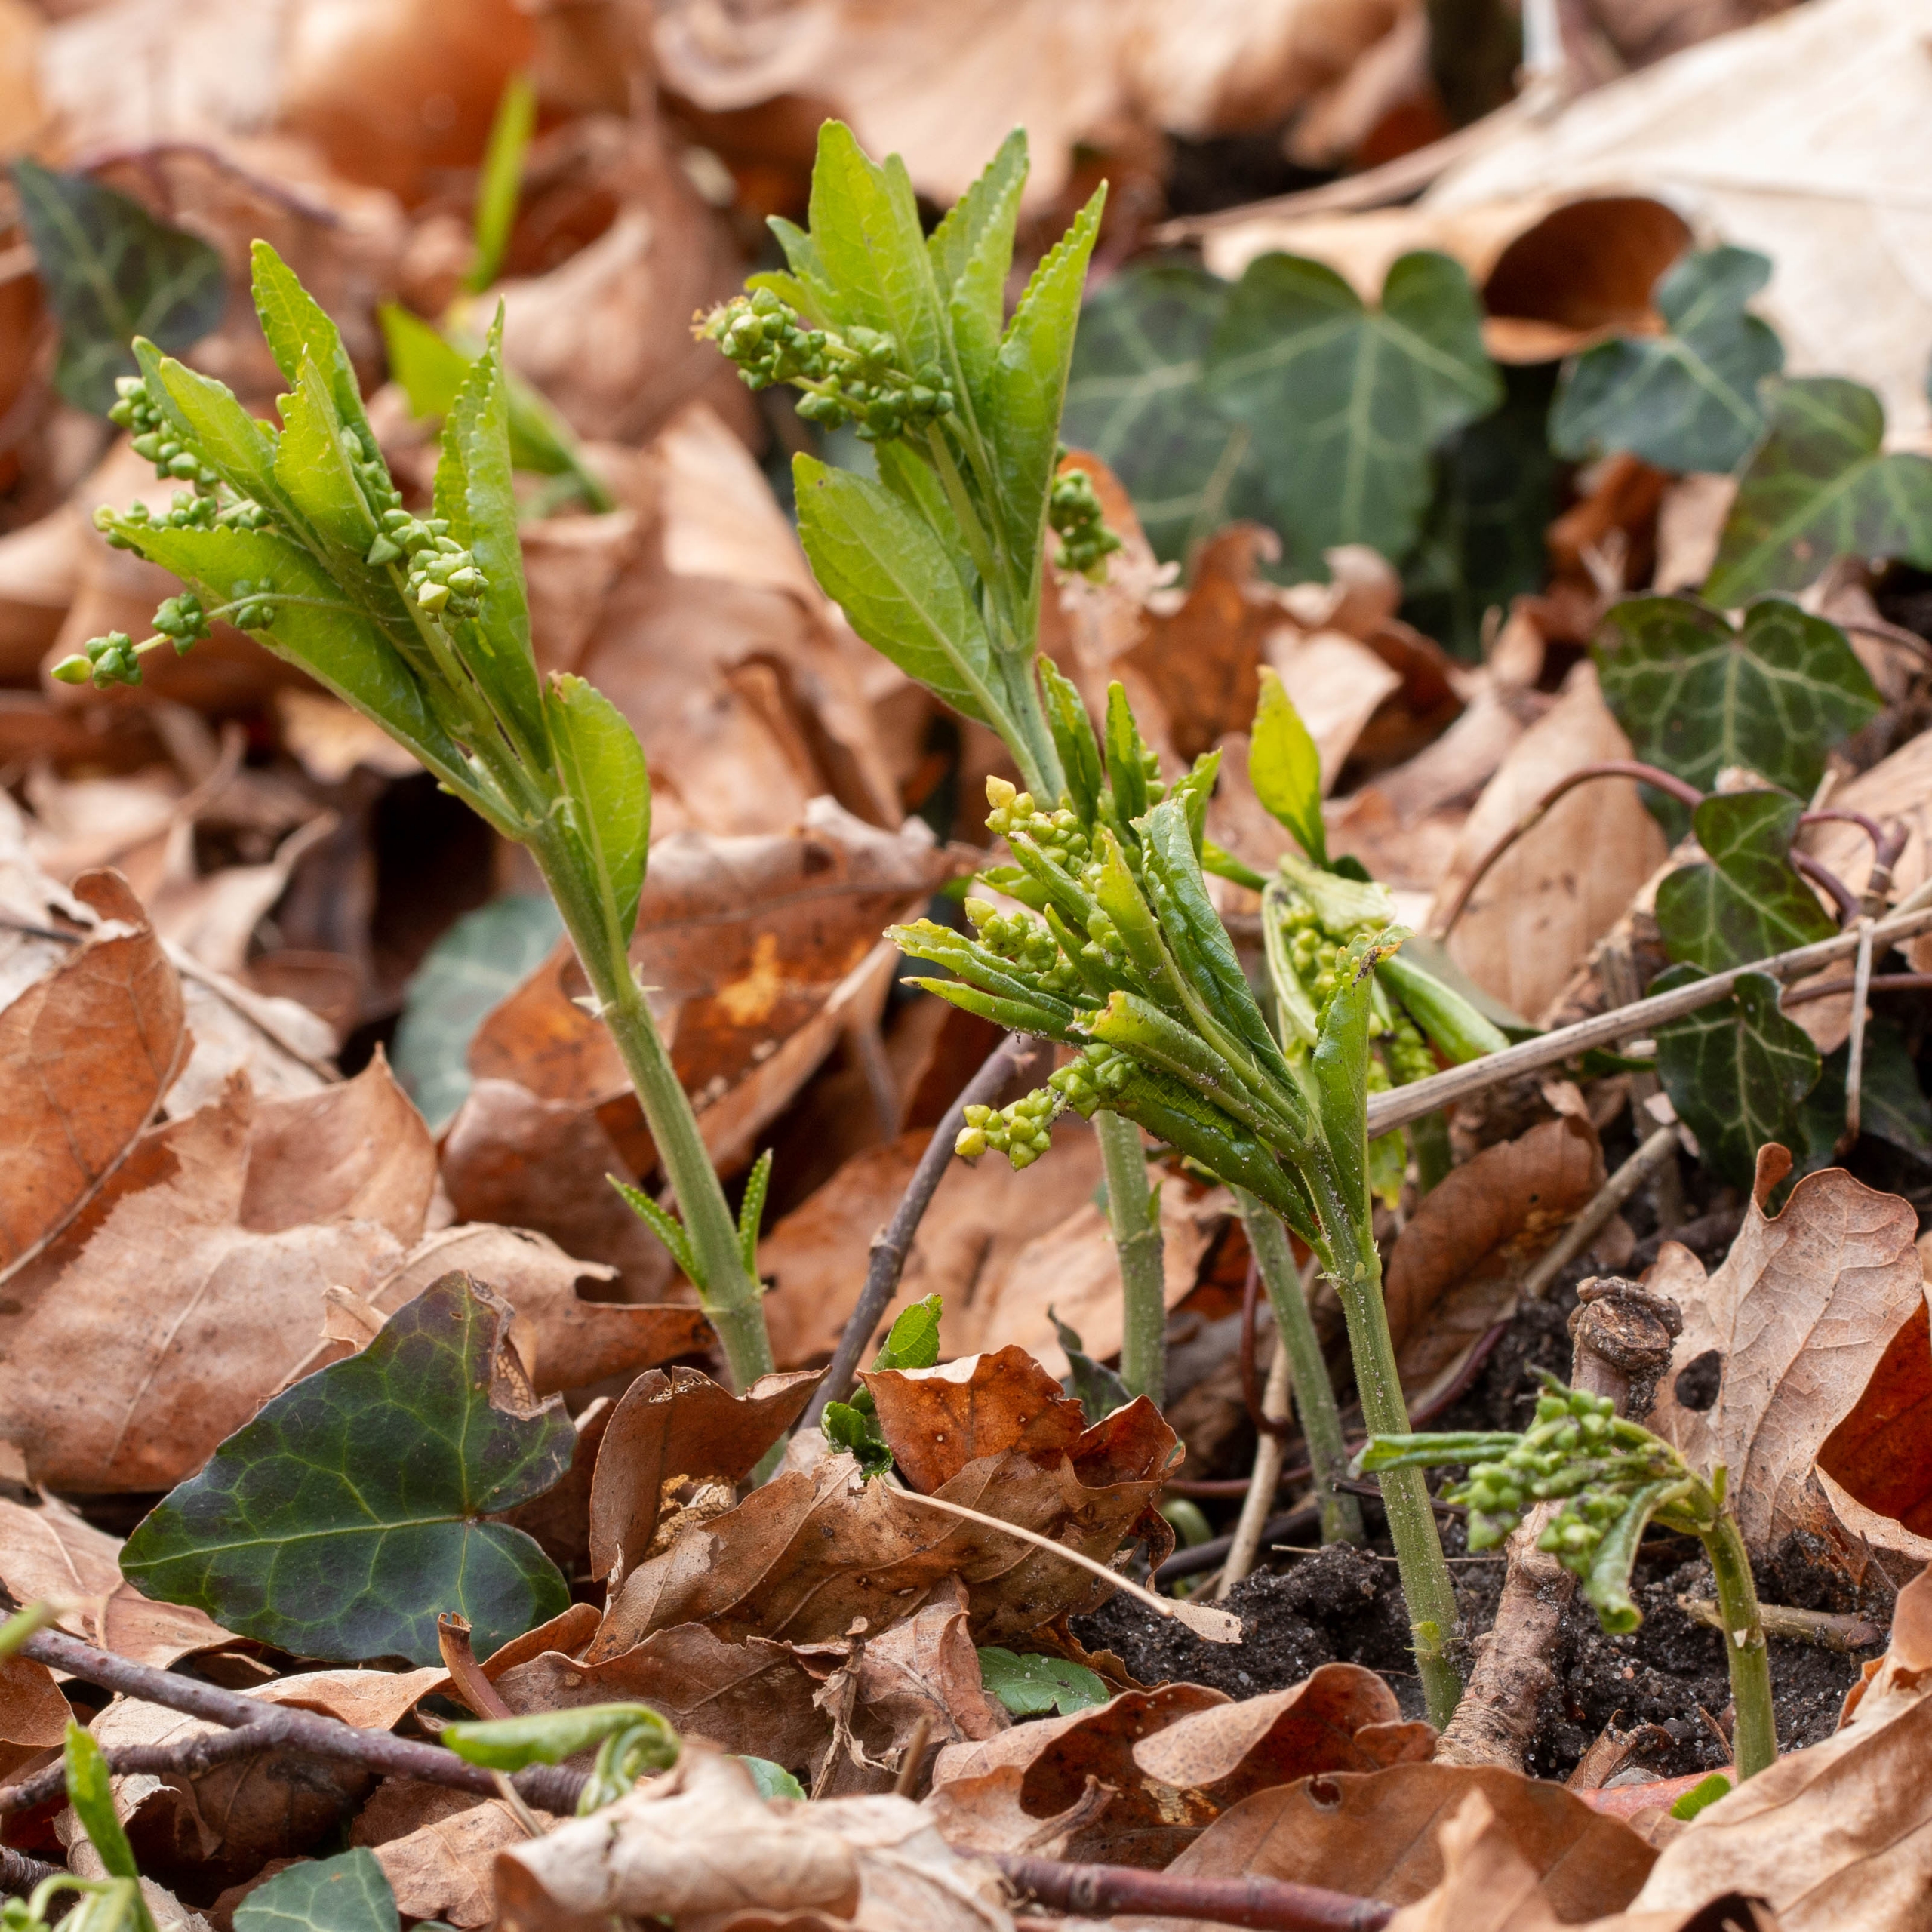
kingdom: Plantae
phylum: Tracheophyta
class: Magnoliopsida
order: Malpighiales
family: Euphorbiaceae
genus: Mercurialis
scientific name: Mercurialis perennis
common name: Almindelig bingelurt
